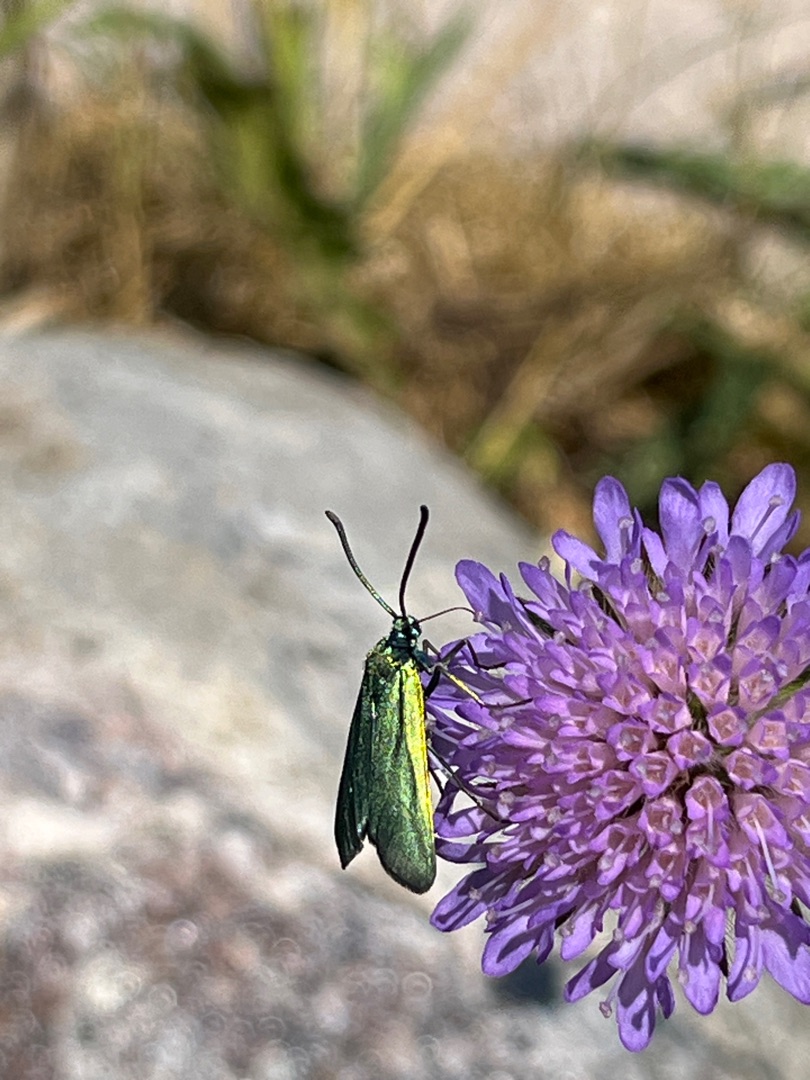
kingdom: Animalia
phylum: Arthropoda
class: Insecta
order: Lepidoptera
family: Zygaenidae
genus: Adscita
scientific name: Adscita statices
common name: Metalvinge
